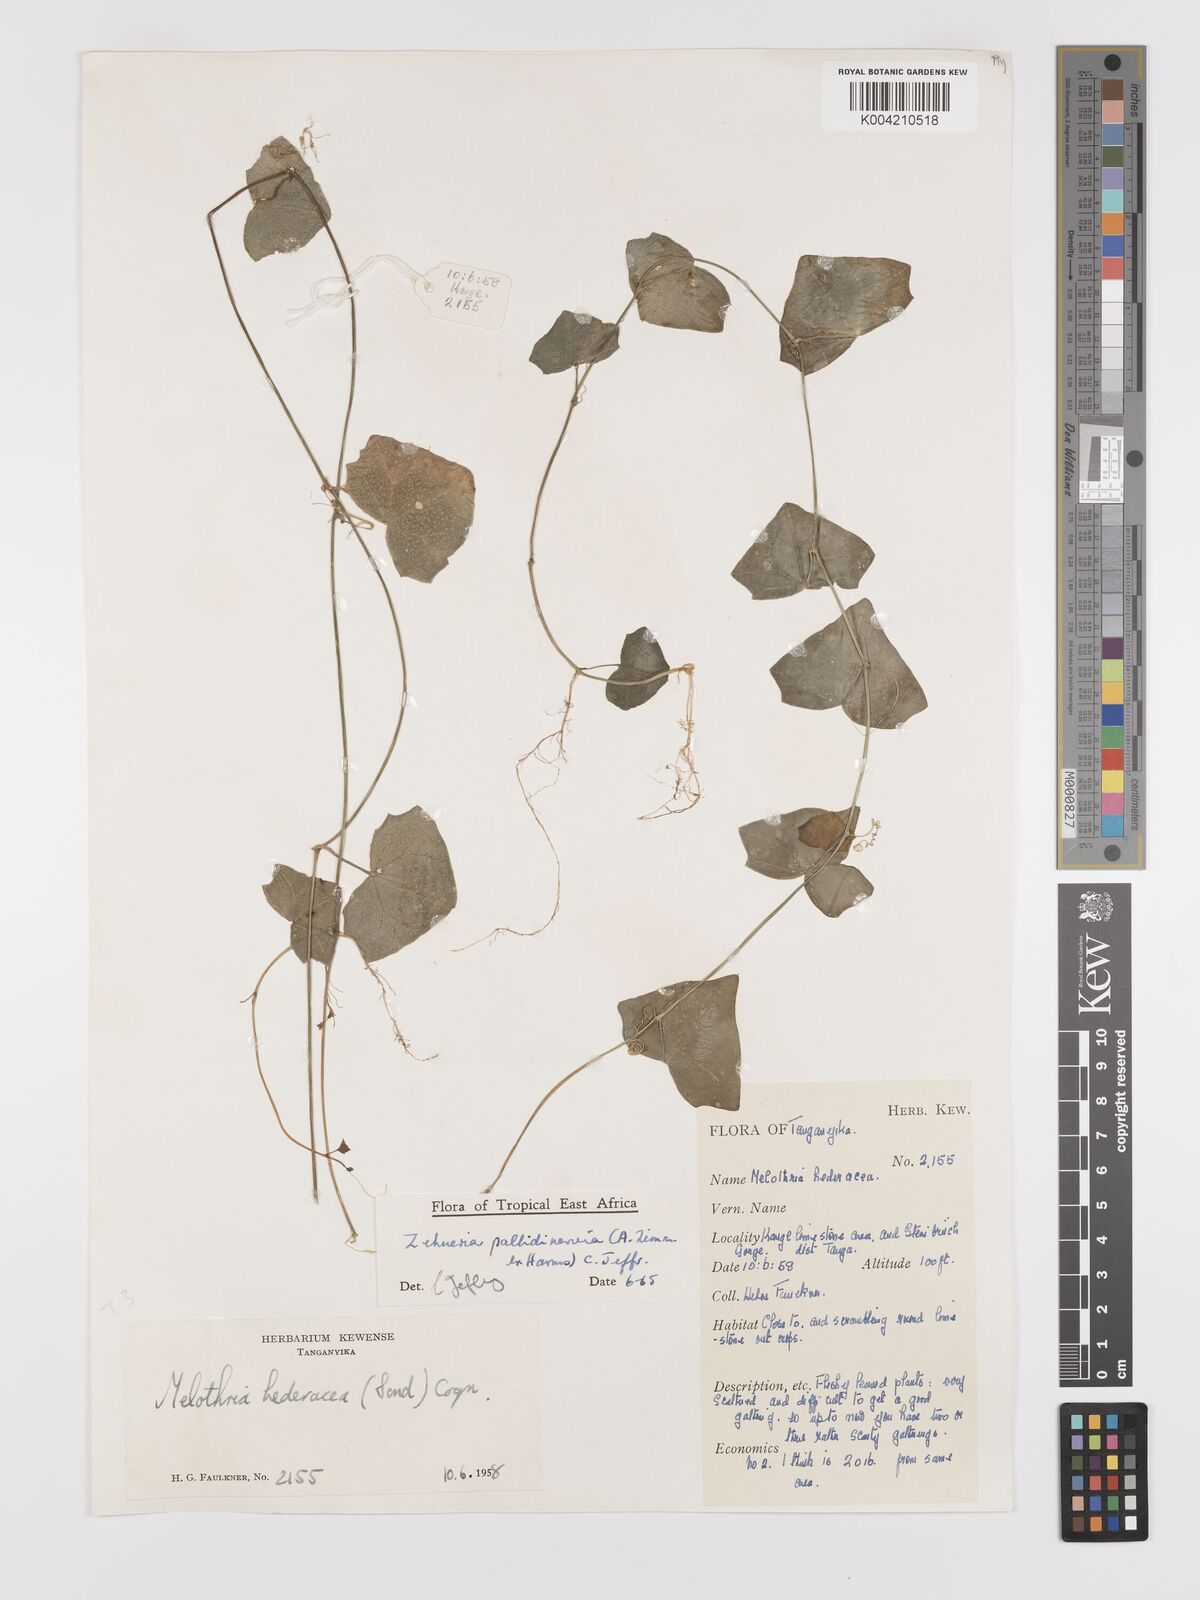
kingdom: Plantae
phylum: Tracheophyta
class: Magnoliopsida
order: Cucurbitales
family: Cucurbitaceae
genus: Zehneria
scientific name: Zehneria pallidinervia
